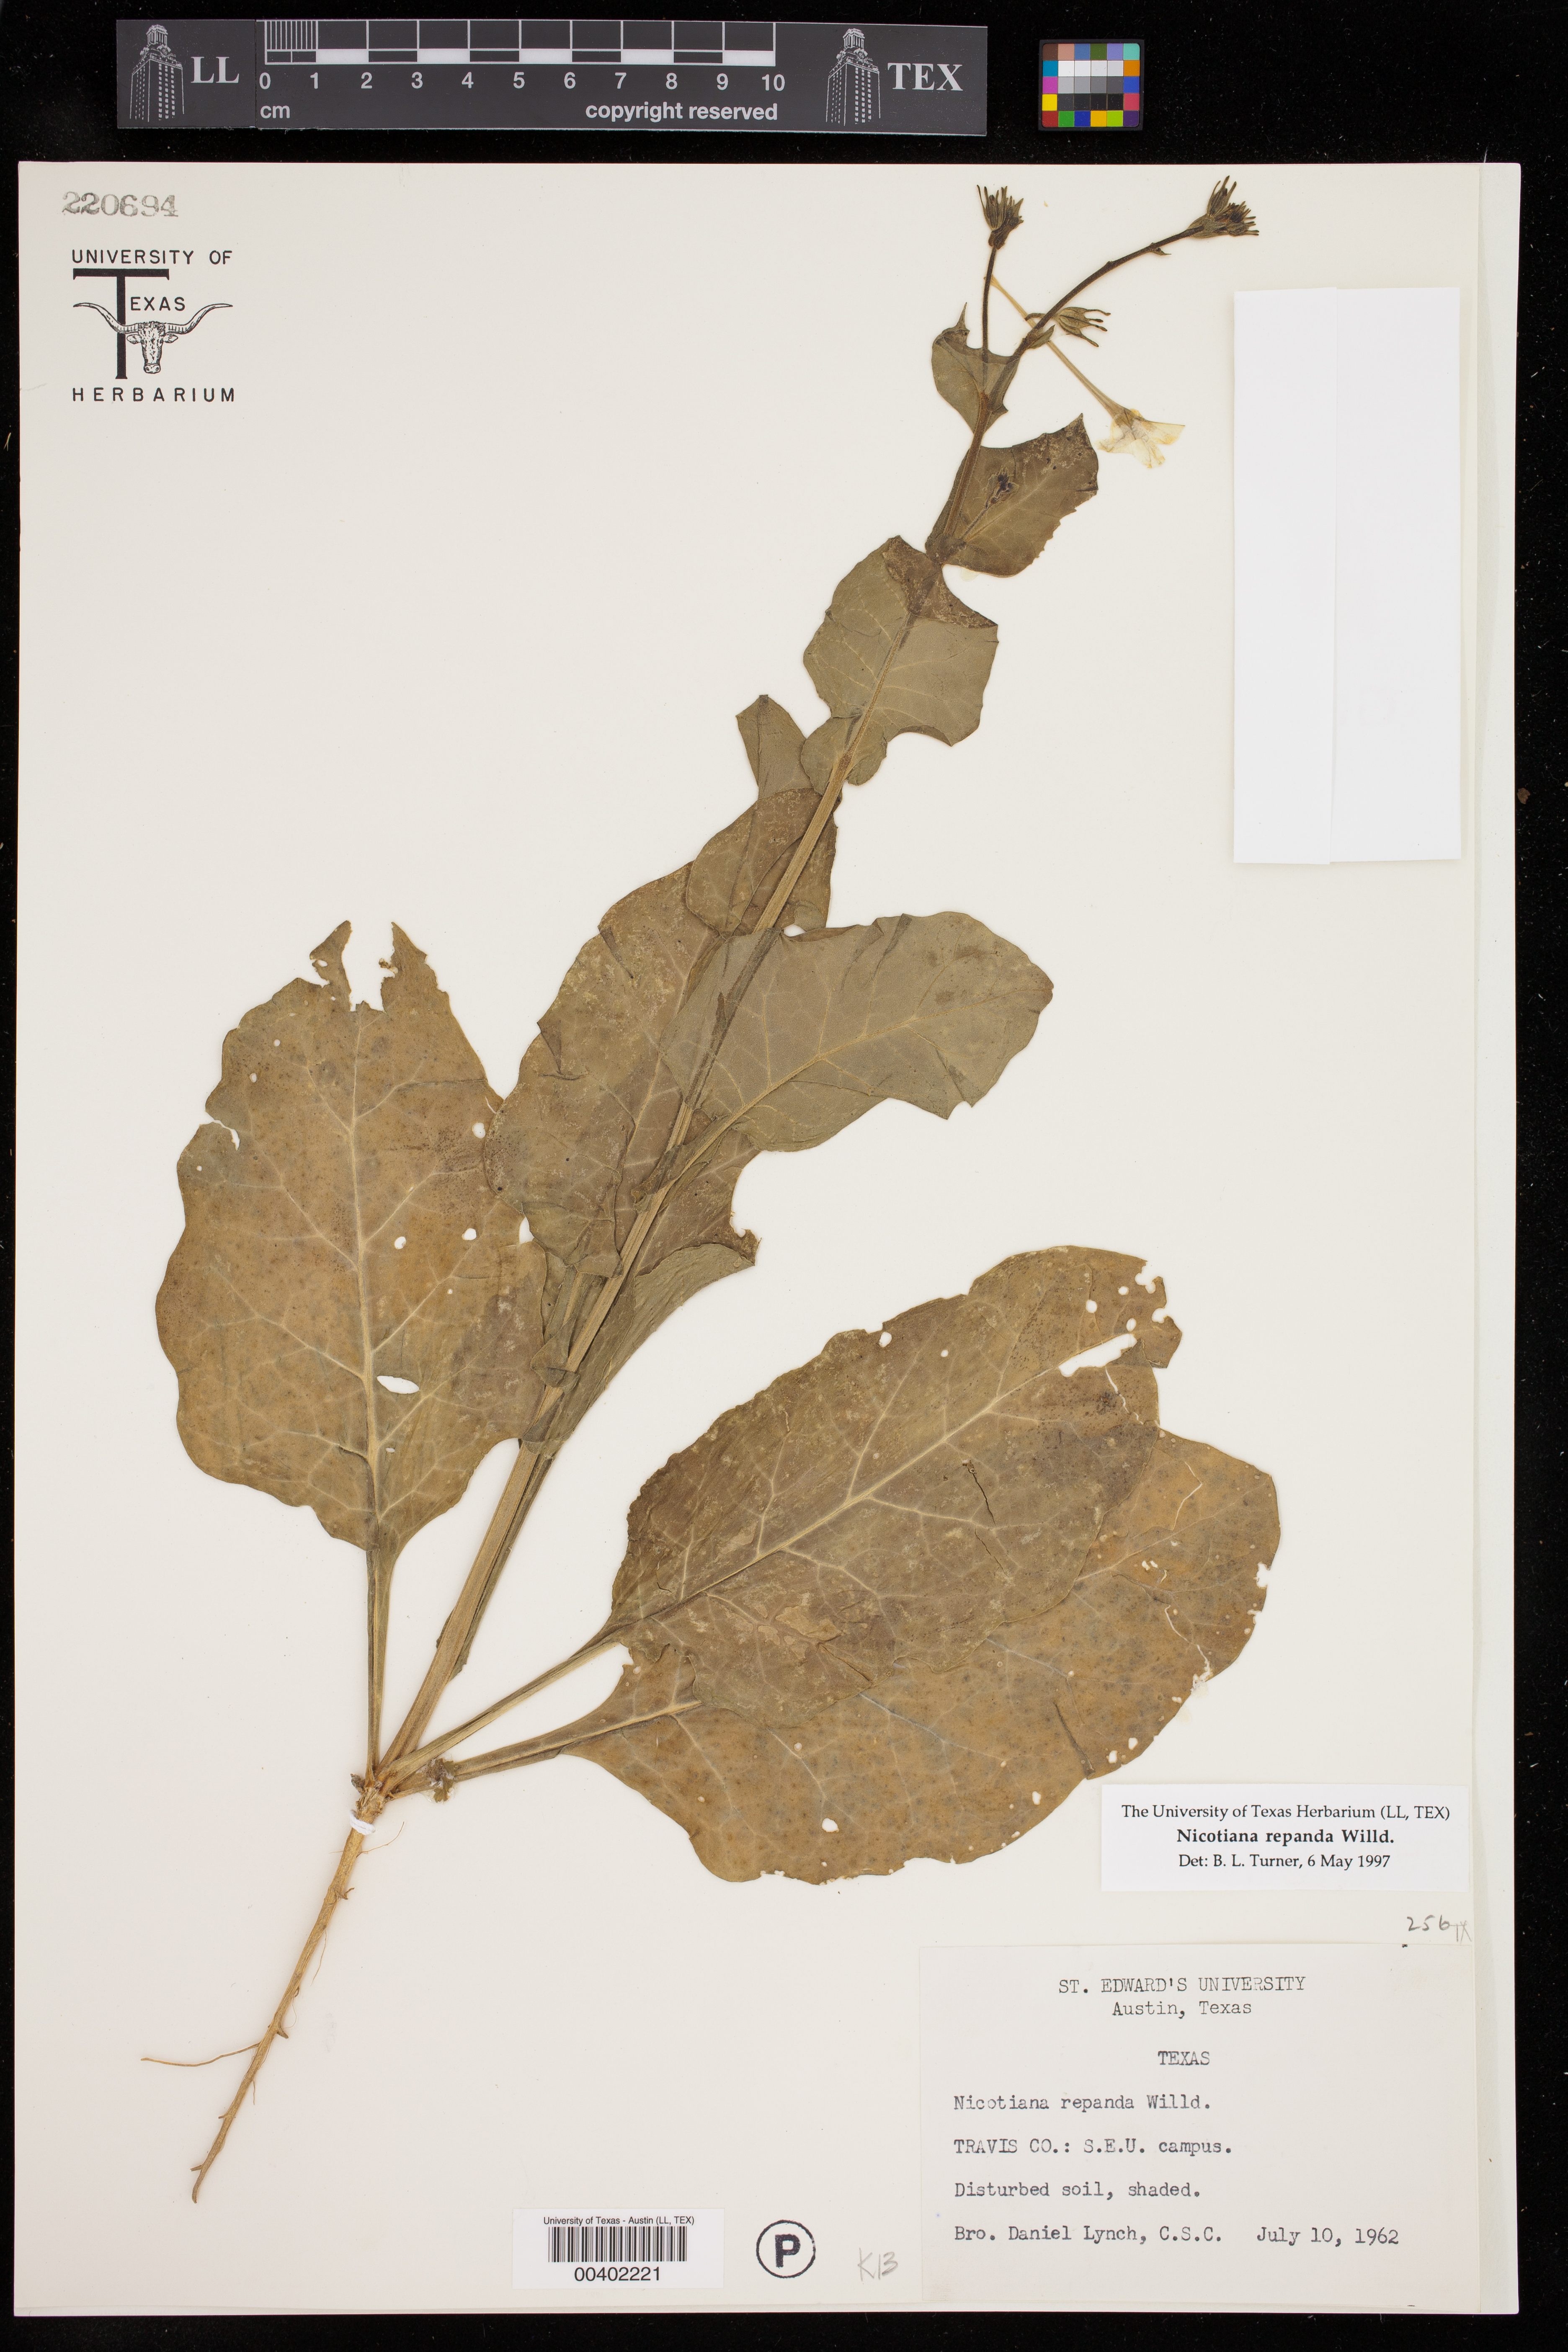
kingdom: Plantae
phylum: Tracheophyta
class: Magnoliopsida
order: Solanales
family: Solanaceae
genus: Nicotiana
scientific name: Nicotiana repanda
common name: Fiddle-leaf tobacco
